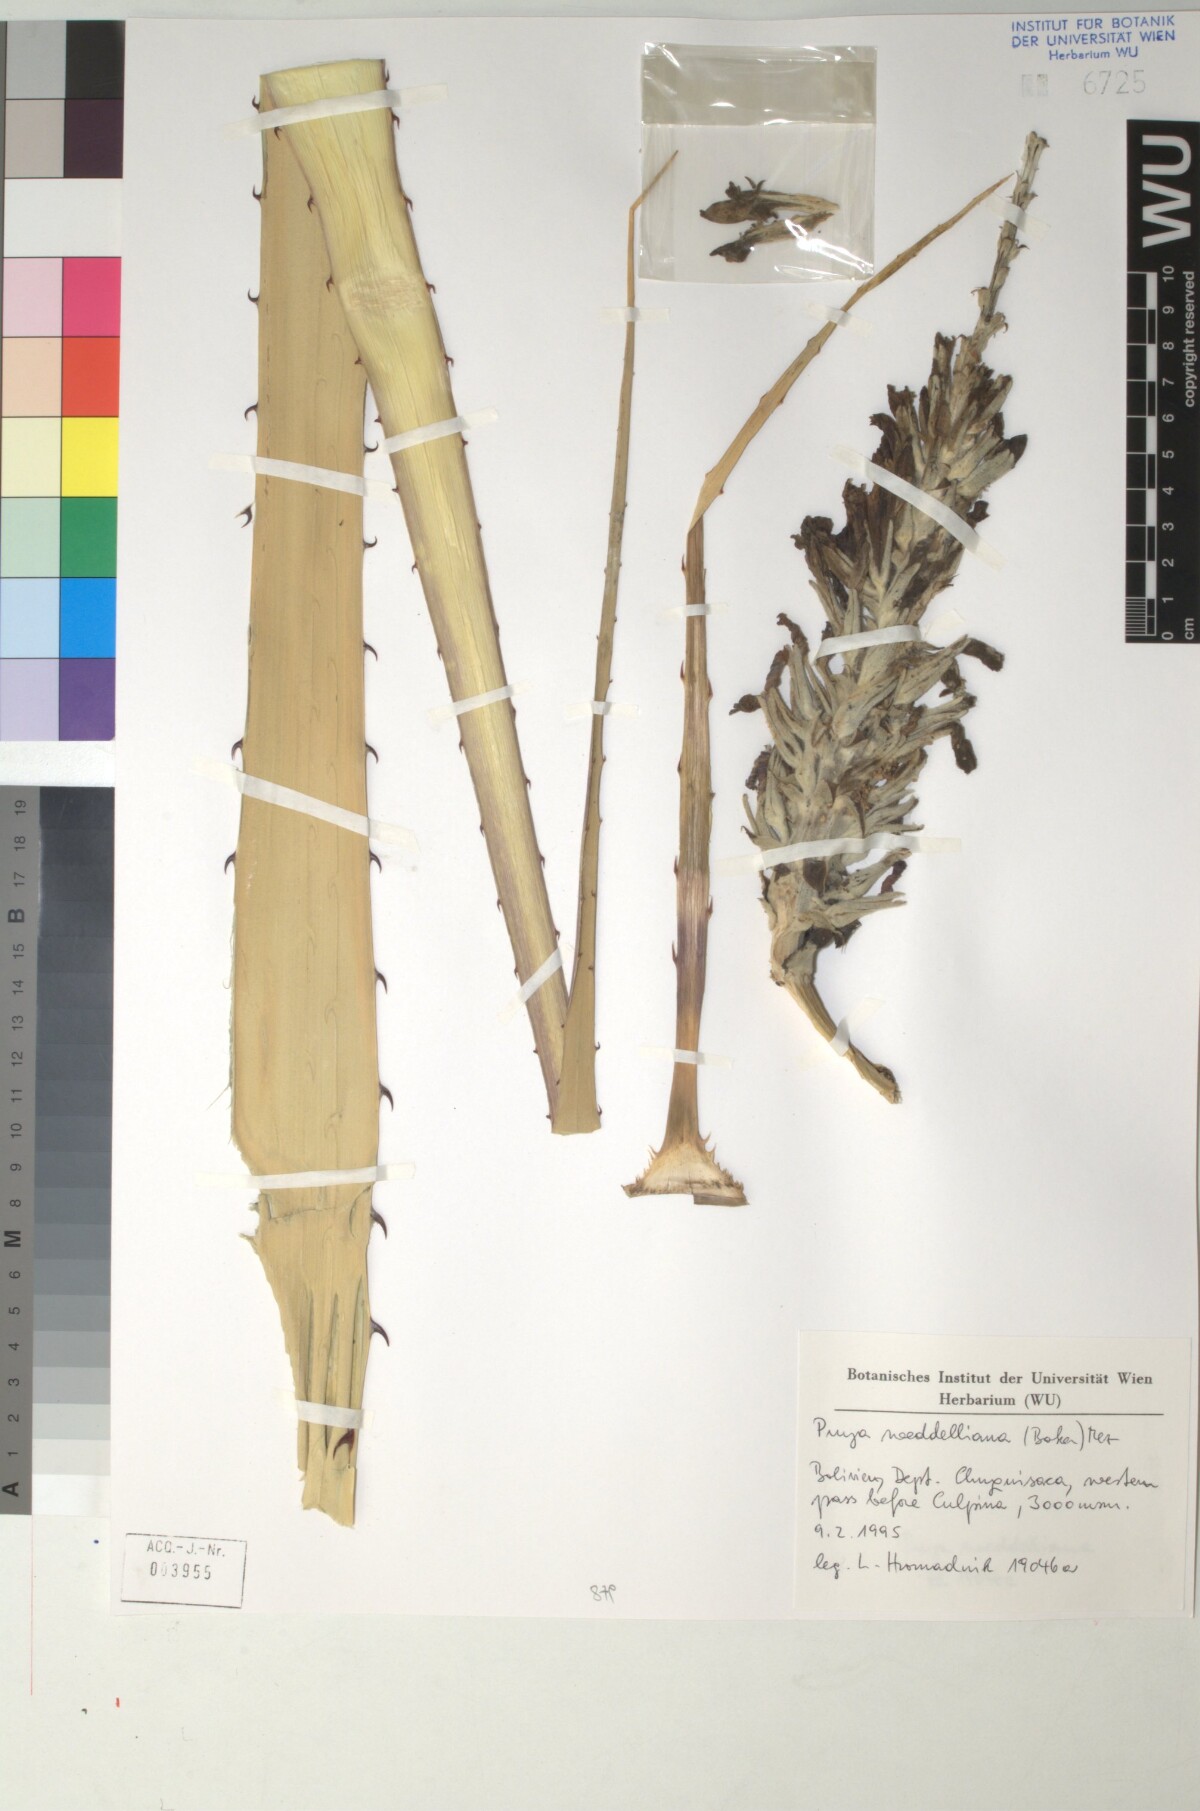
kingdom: Plantae
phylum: Tracheophyta
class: Liliopsida
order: Poales
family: Bromeliaceae
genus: Puya
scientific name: Puya weddelliana
